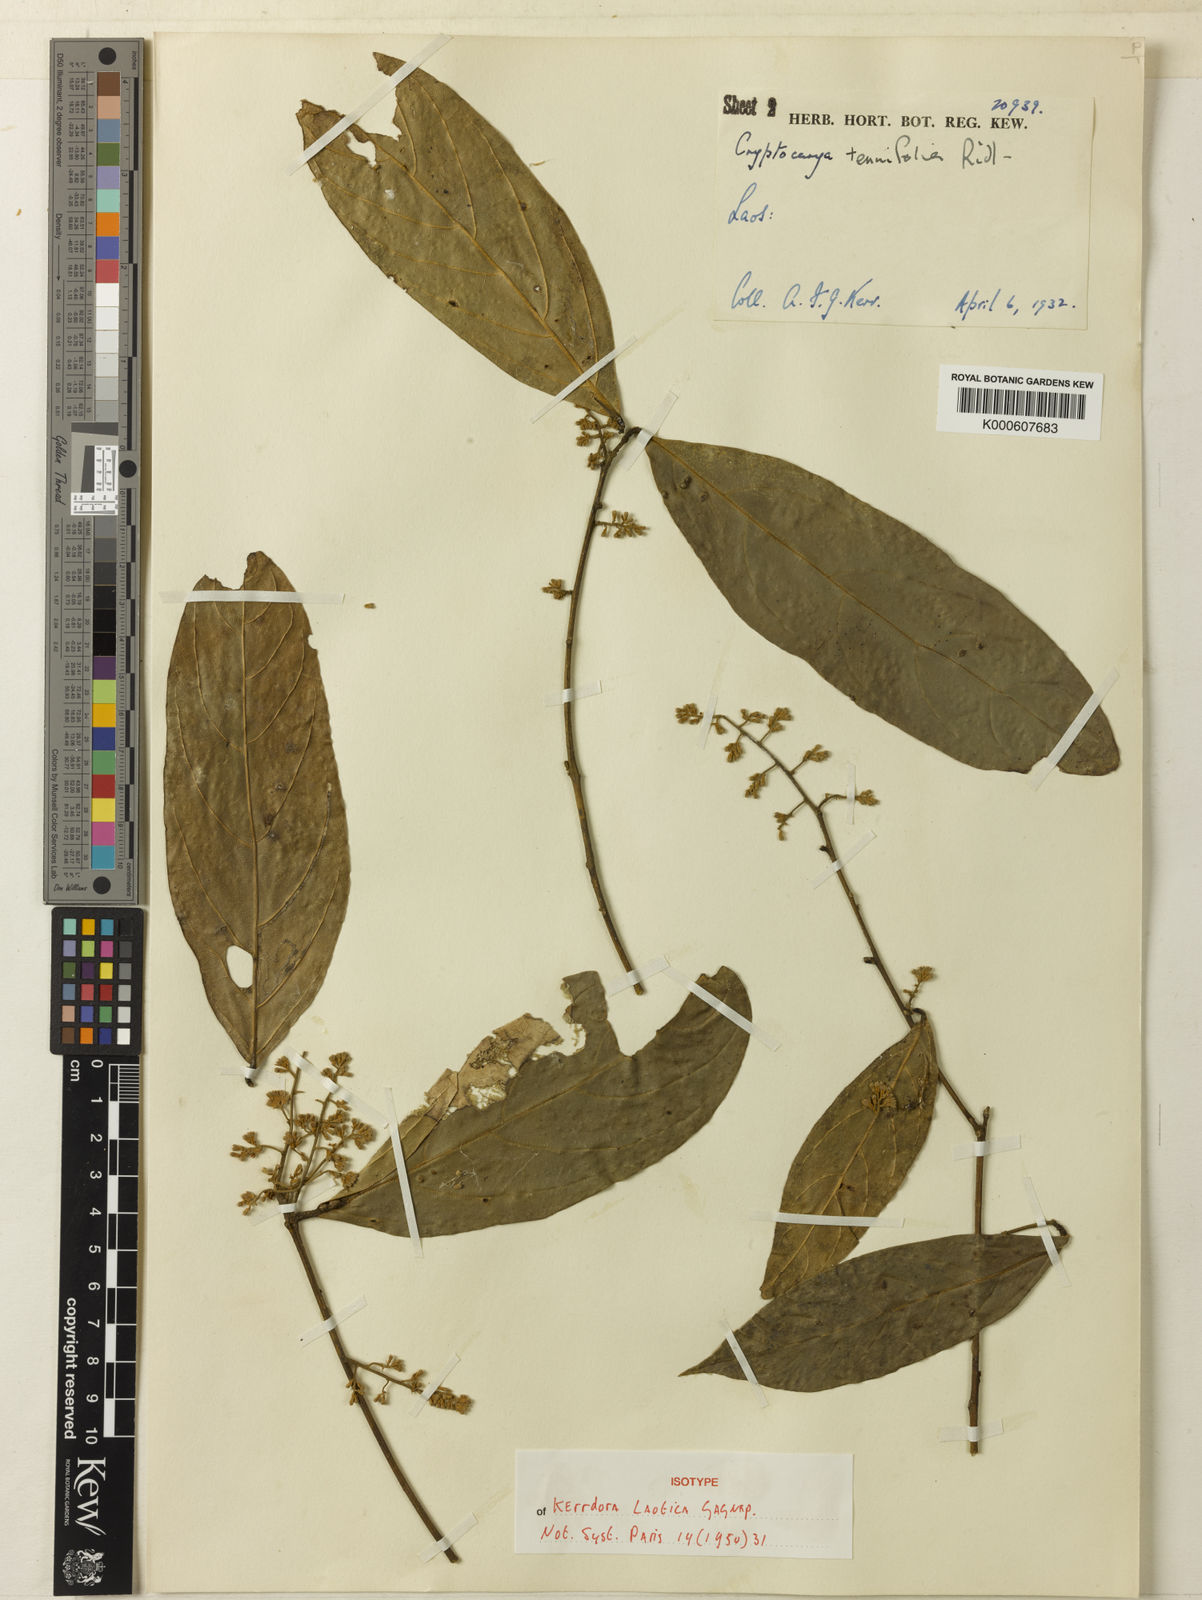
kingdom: Plantae
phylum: Tracheophyta
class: Magnoliopsida
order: Laurales
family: Lauraceae
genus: Cryptocarya
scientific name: Cryptocarya laotica
